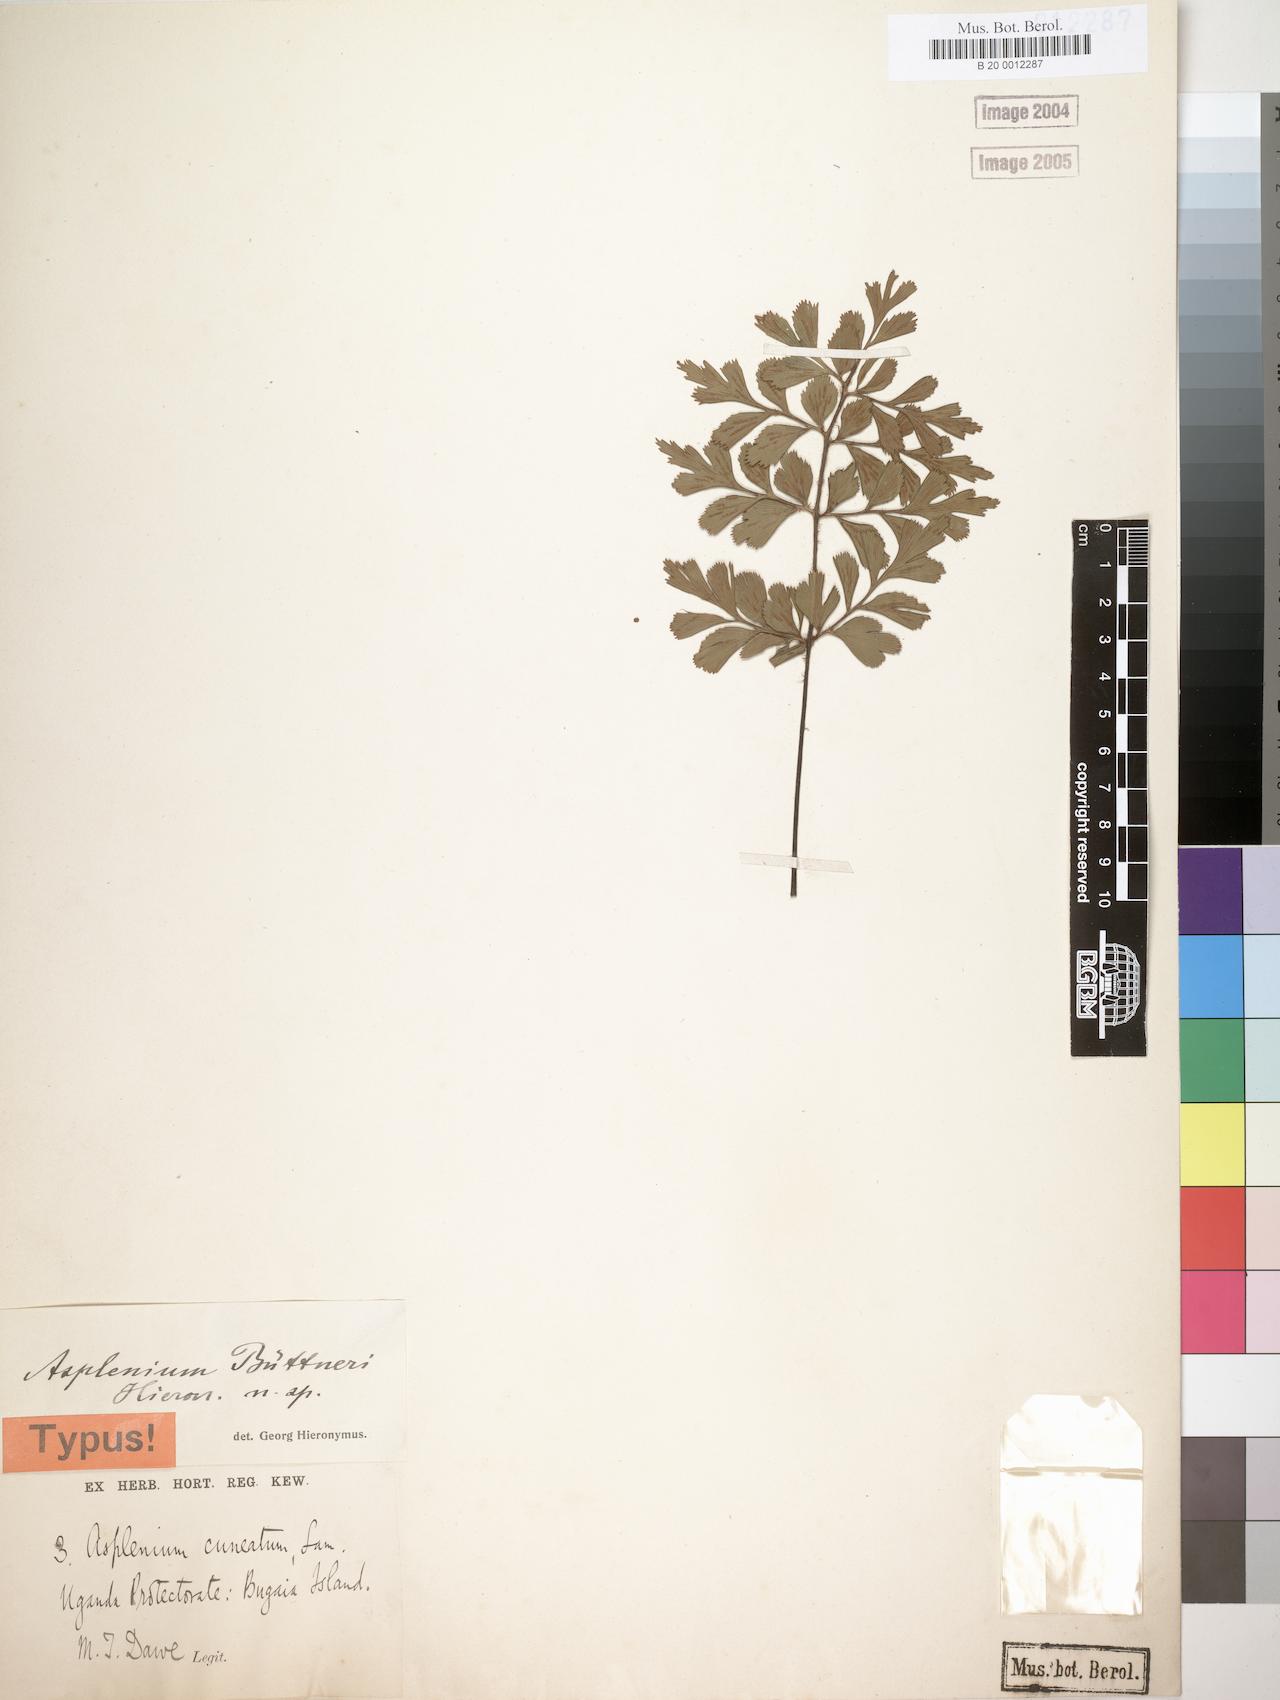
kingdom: Plantae
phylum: Tracheophyta
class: Polypodiopsida
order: Polypodiales
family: Aspleniaceae
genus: Asplenium
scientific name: Asplenium buettneri
